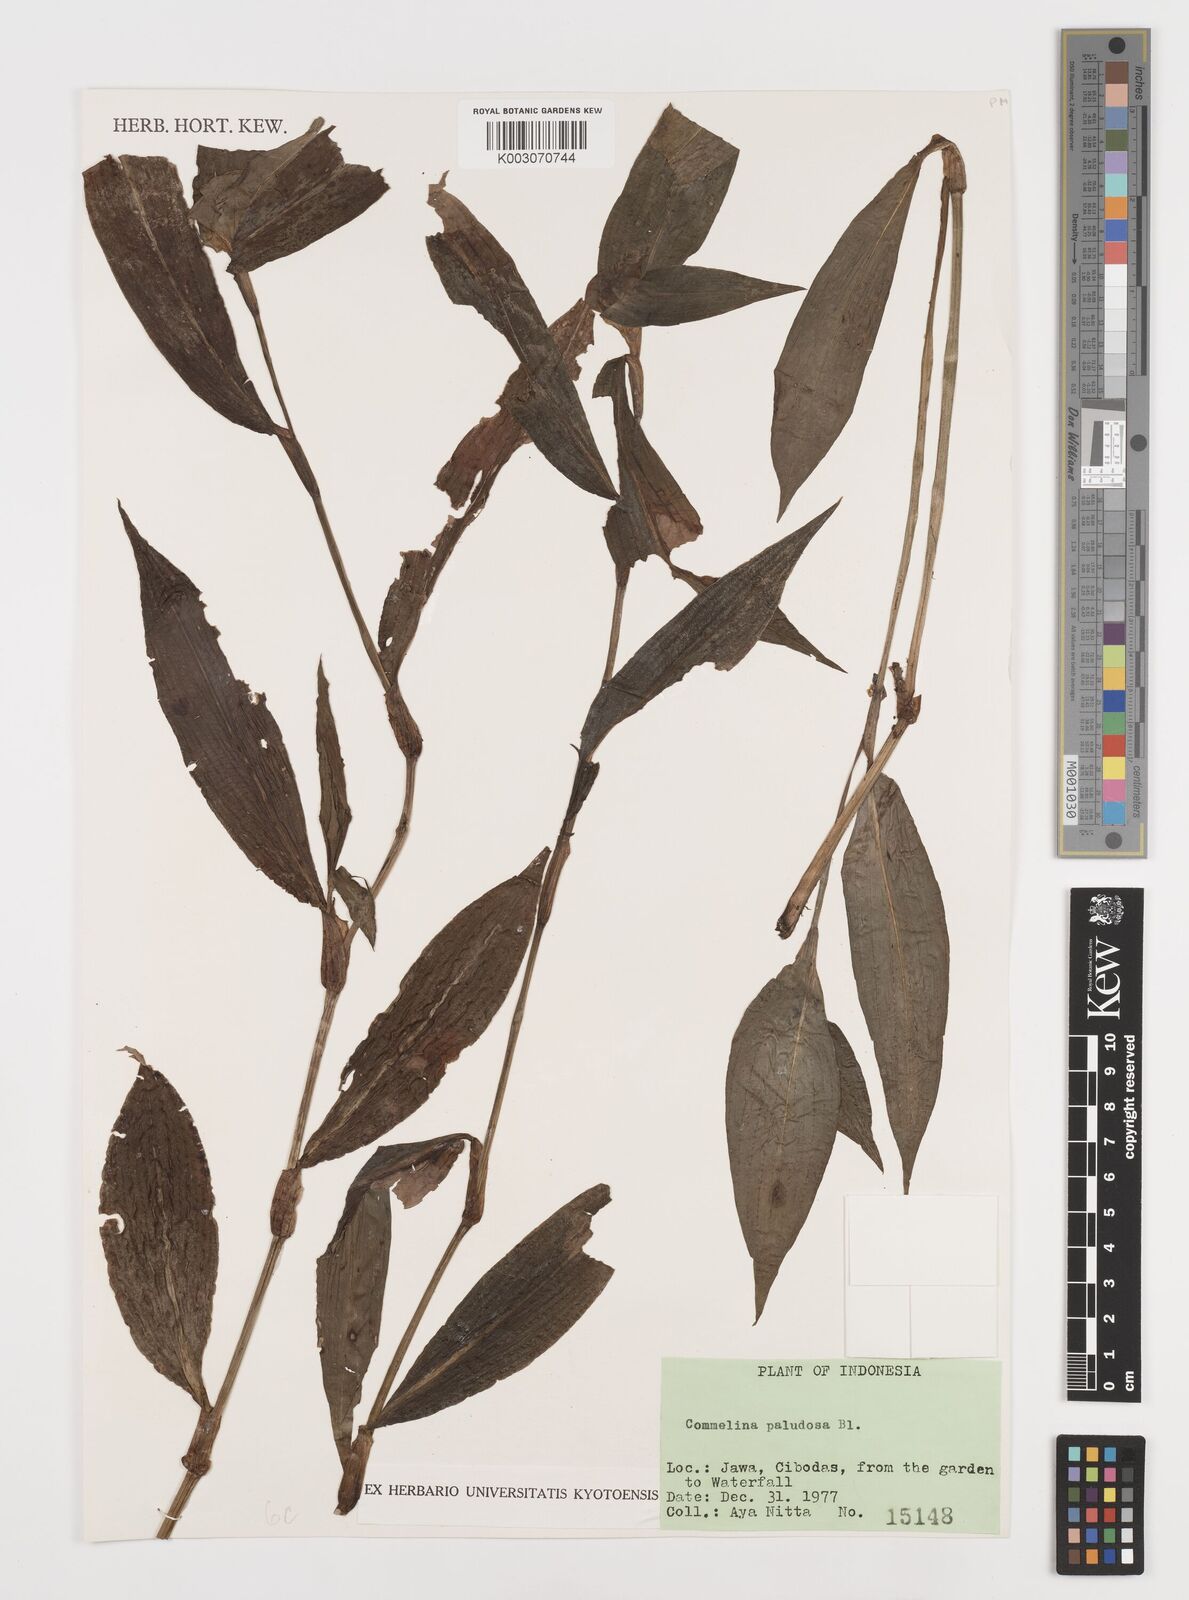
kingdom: Plantae
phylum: Tracheophyta
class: Liliopsida
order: Commelinales
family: Commelinaceae
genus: Commelina
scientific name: Commelina paludosa
